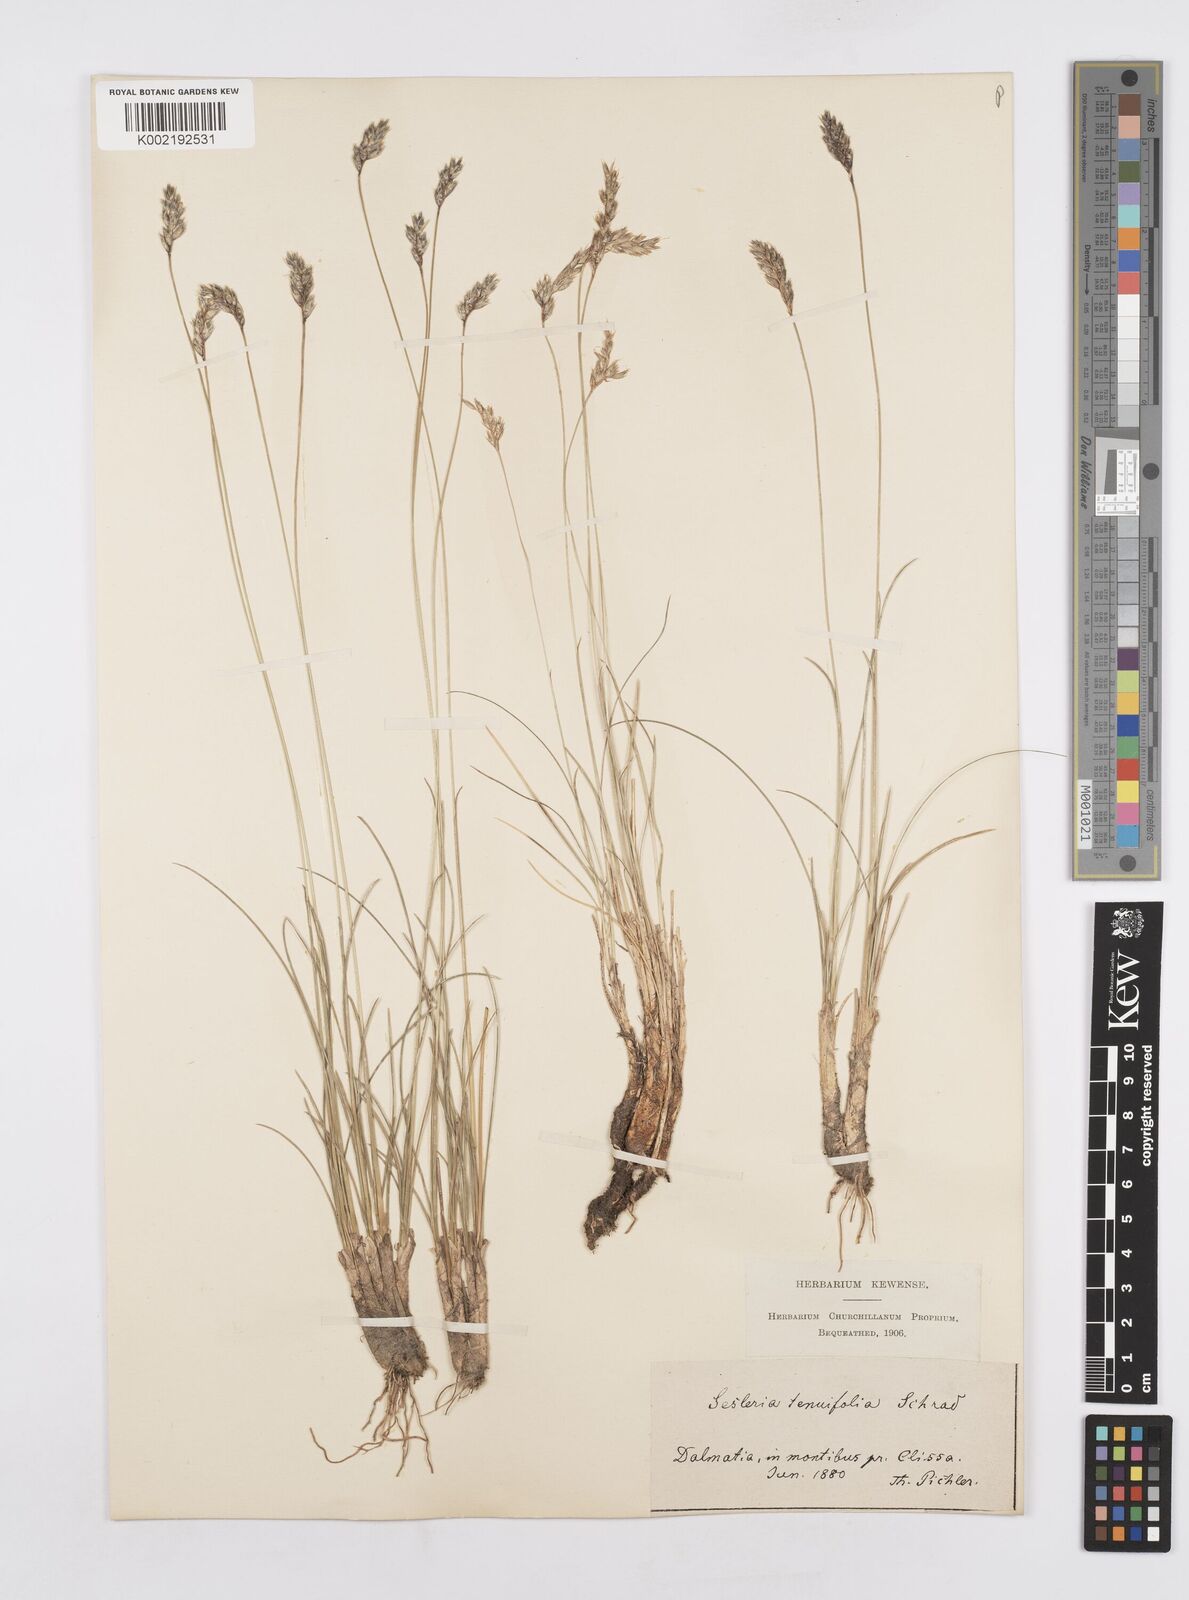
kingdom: Plantae
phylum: Tracheophyta
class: Liliopsida
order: Poales
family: Poaceae
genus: Sesleria
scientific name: Sesleria juncifolia
